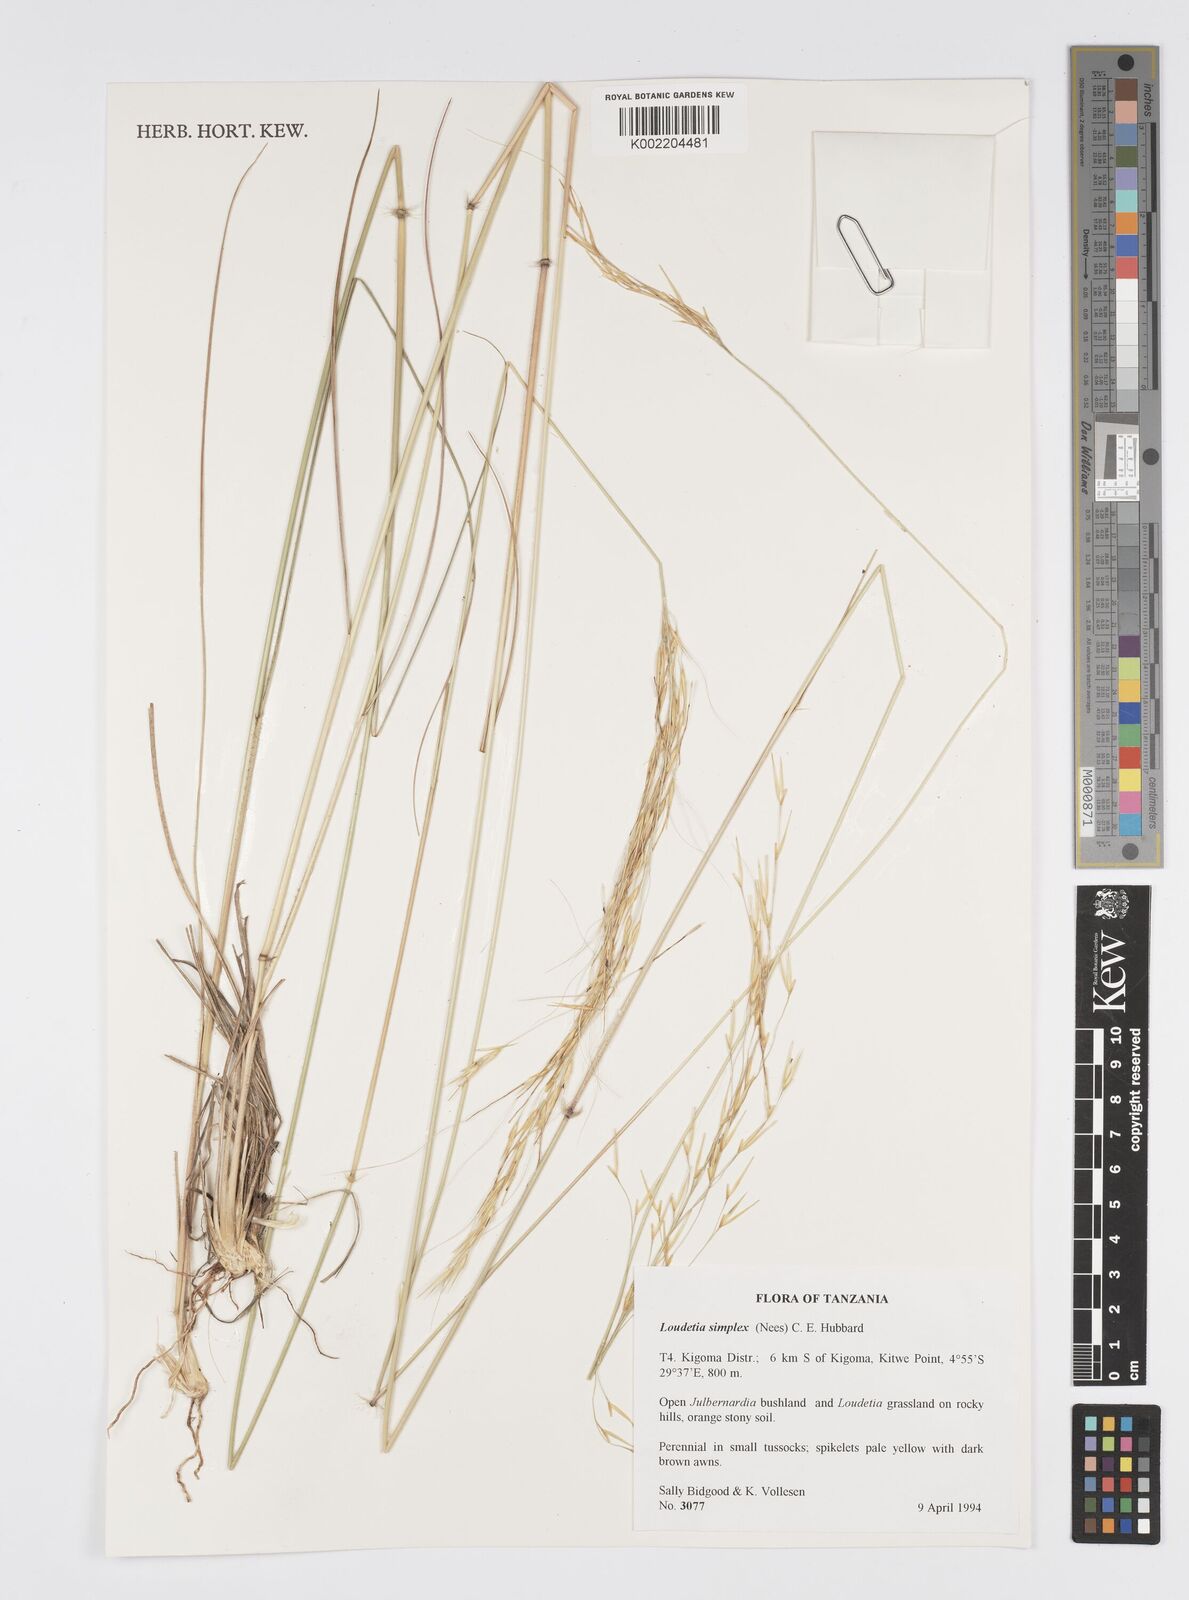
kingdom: Plantae
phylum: Tracheophyta
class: Liliopsida
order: Poales
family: Poaceae
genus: Loudetia
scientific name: Loudetia simplex
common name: Common russet grass
